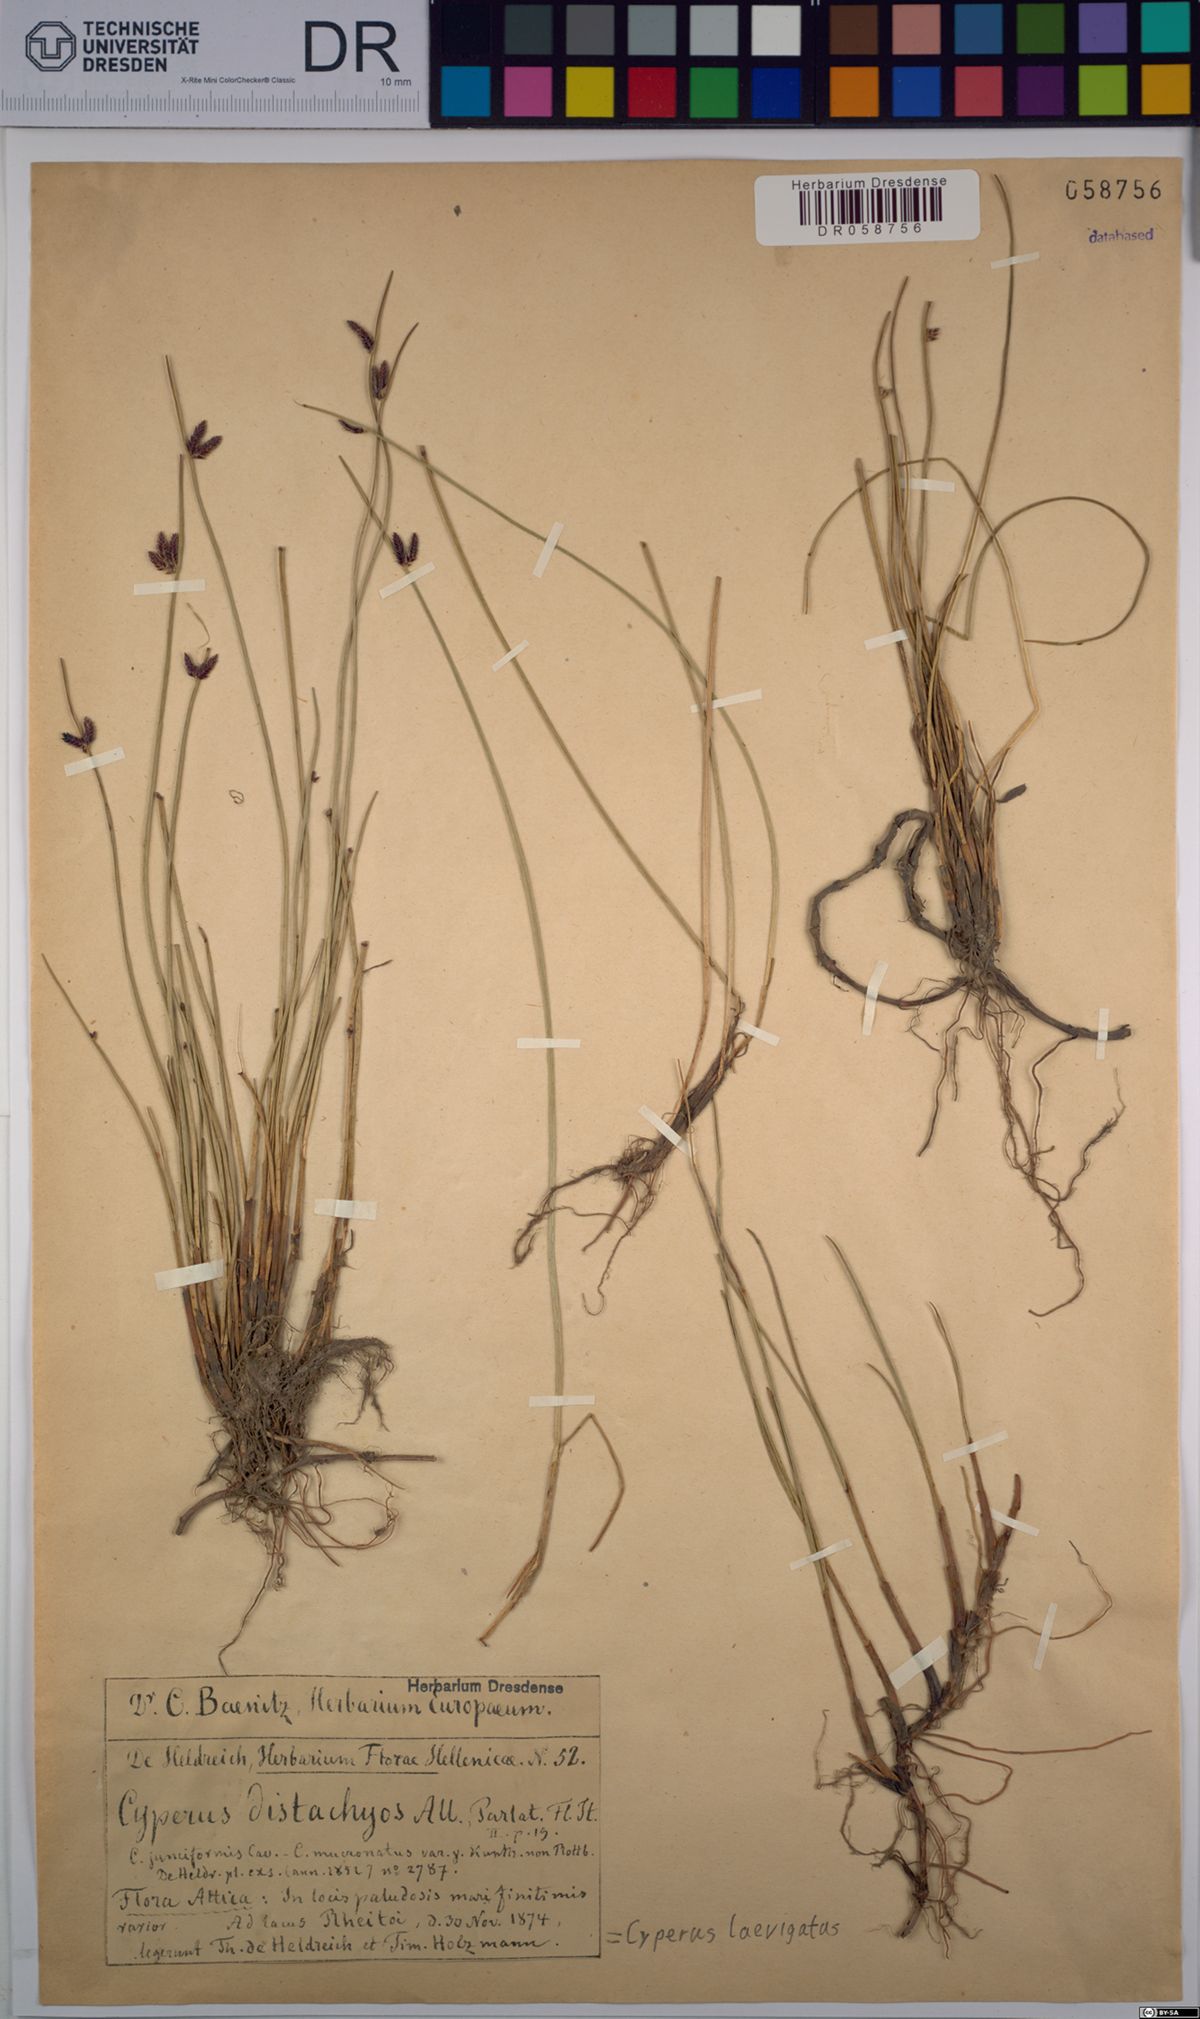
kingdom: Plantae
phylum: Tracheophyta
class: Liliopsida
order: Poales
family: Cyperaceae
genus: Cyperus
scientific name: Cyperus laevigatus
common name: Smooth flat sedge
